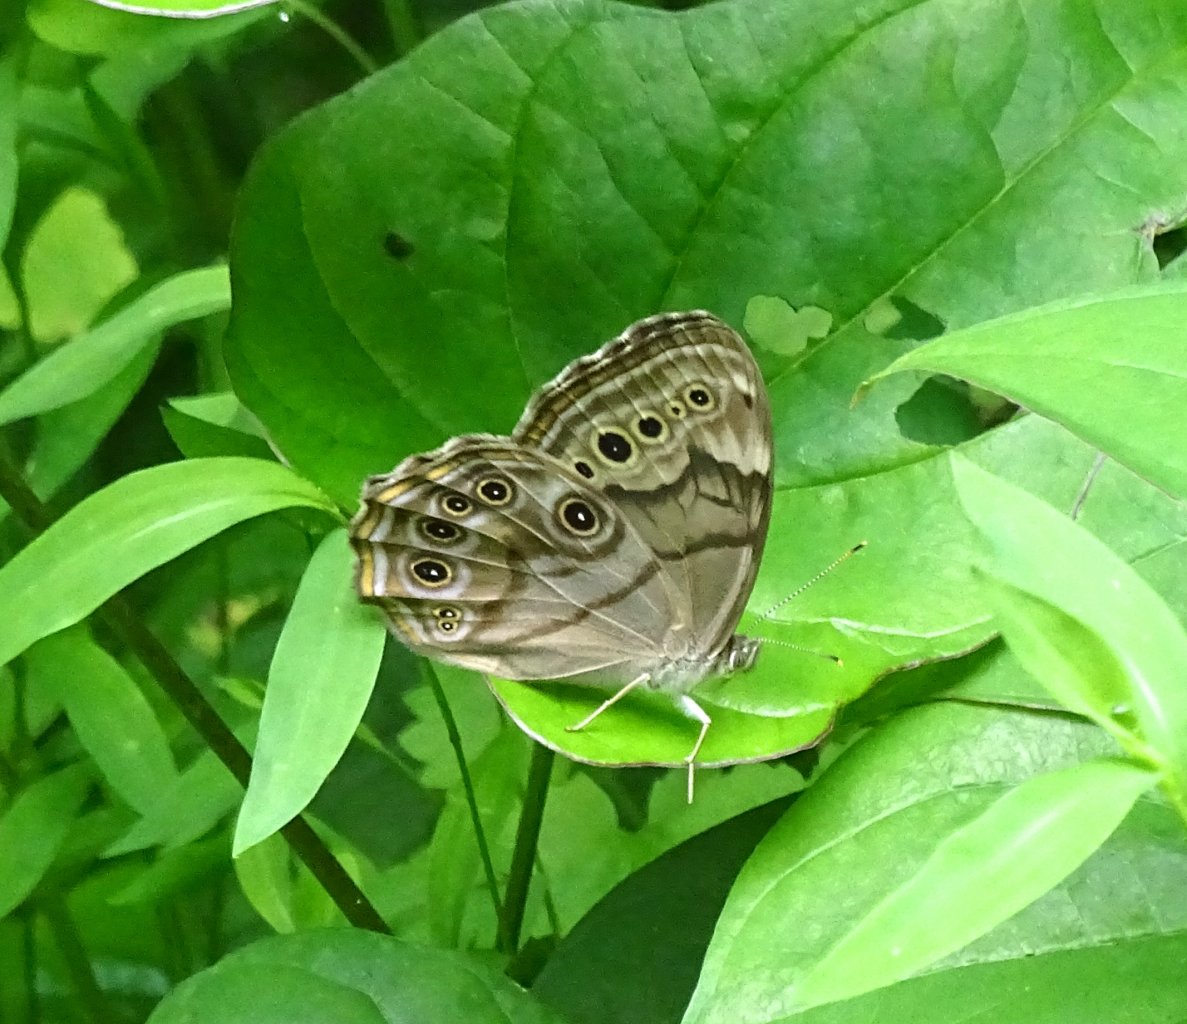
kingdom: Animalia
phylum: Arthropoda
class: Insecta
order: Lepidoptera
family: Nymphalidae
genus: Lethe
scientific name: Lethe anthedon
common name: Northern Pearly-Eye
